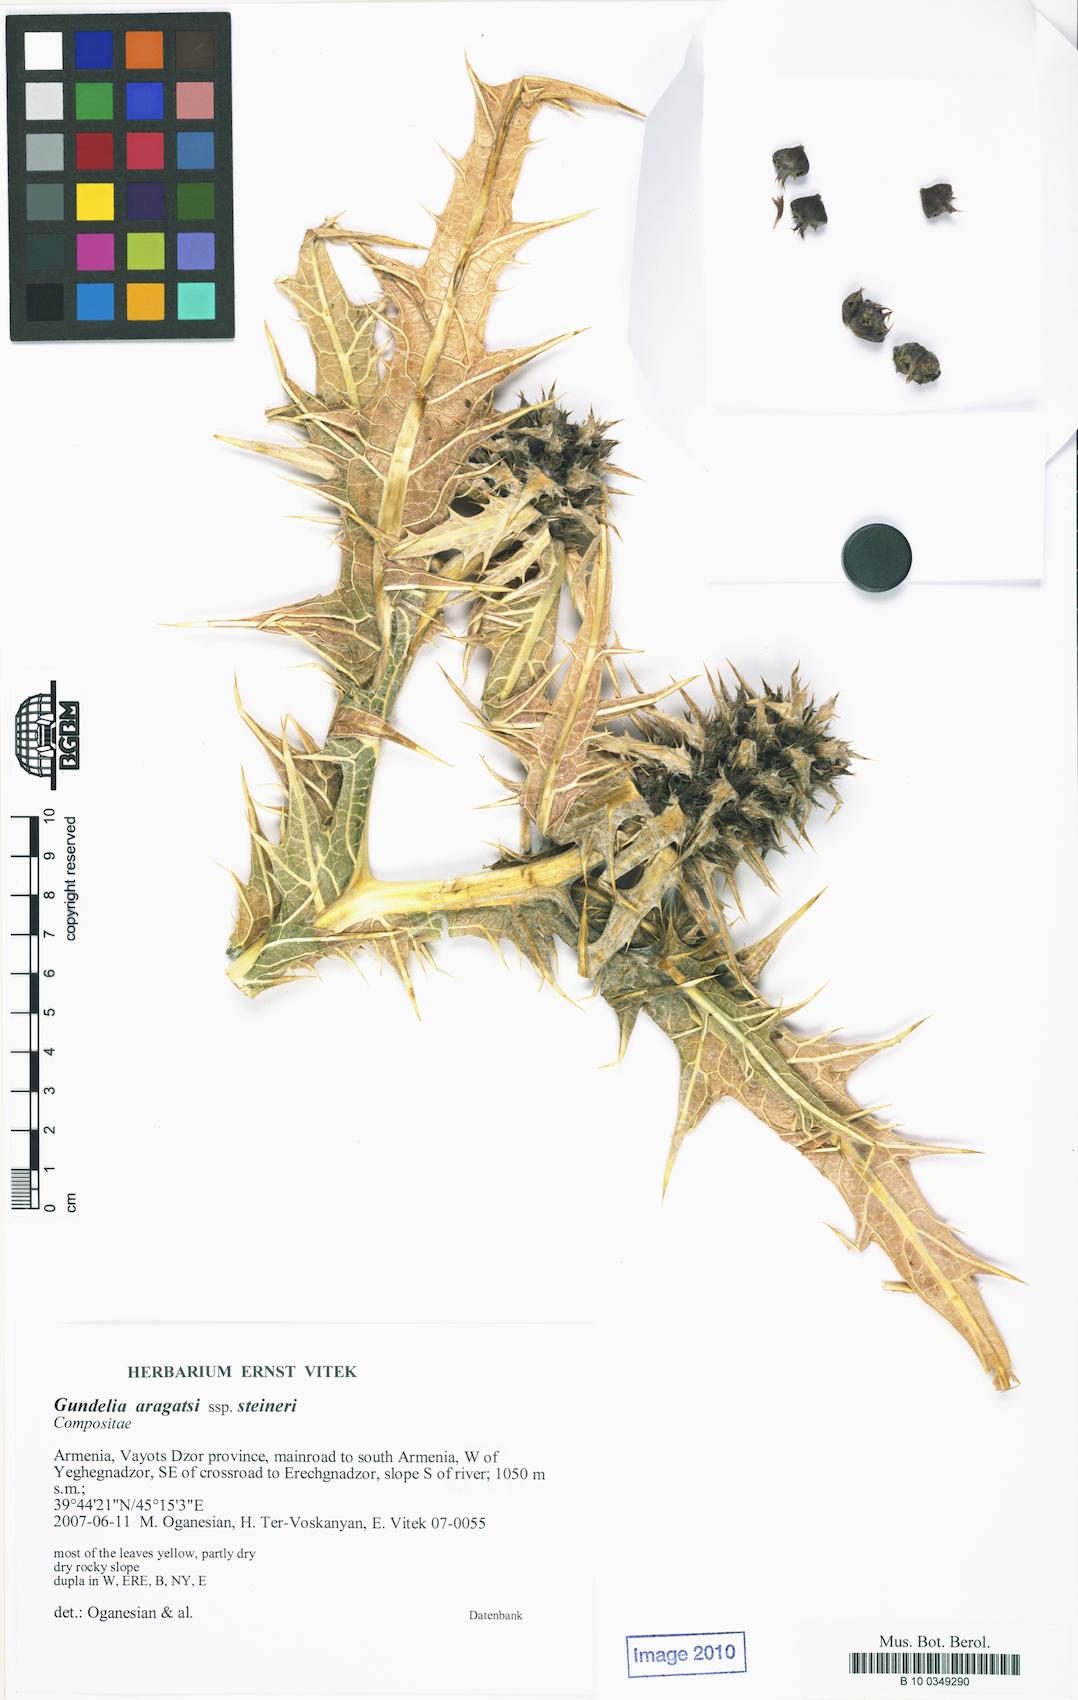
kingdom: Plantae
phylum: Tracheophyta
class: Magnoliopsida
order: Asterales
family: Asteraceae
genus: Gundelia
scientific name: Gundelia aragatsi
